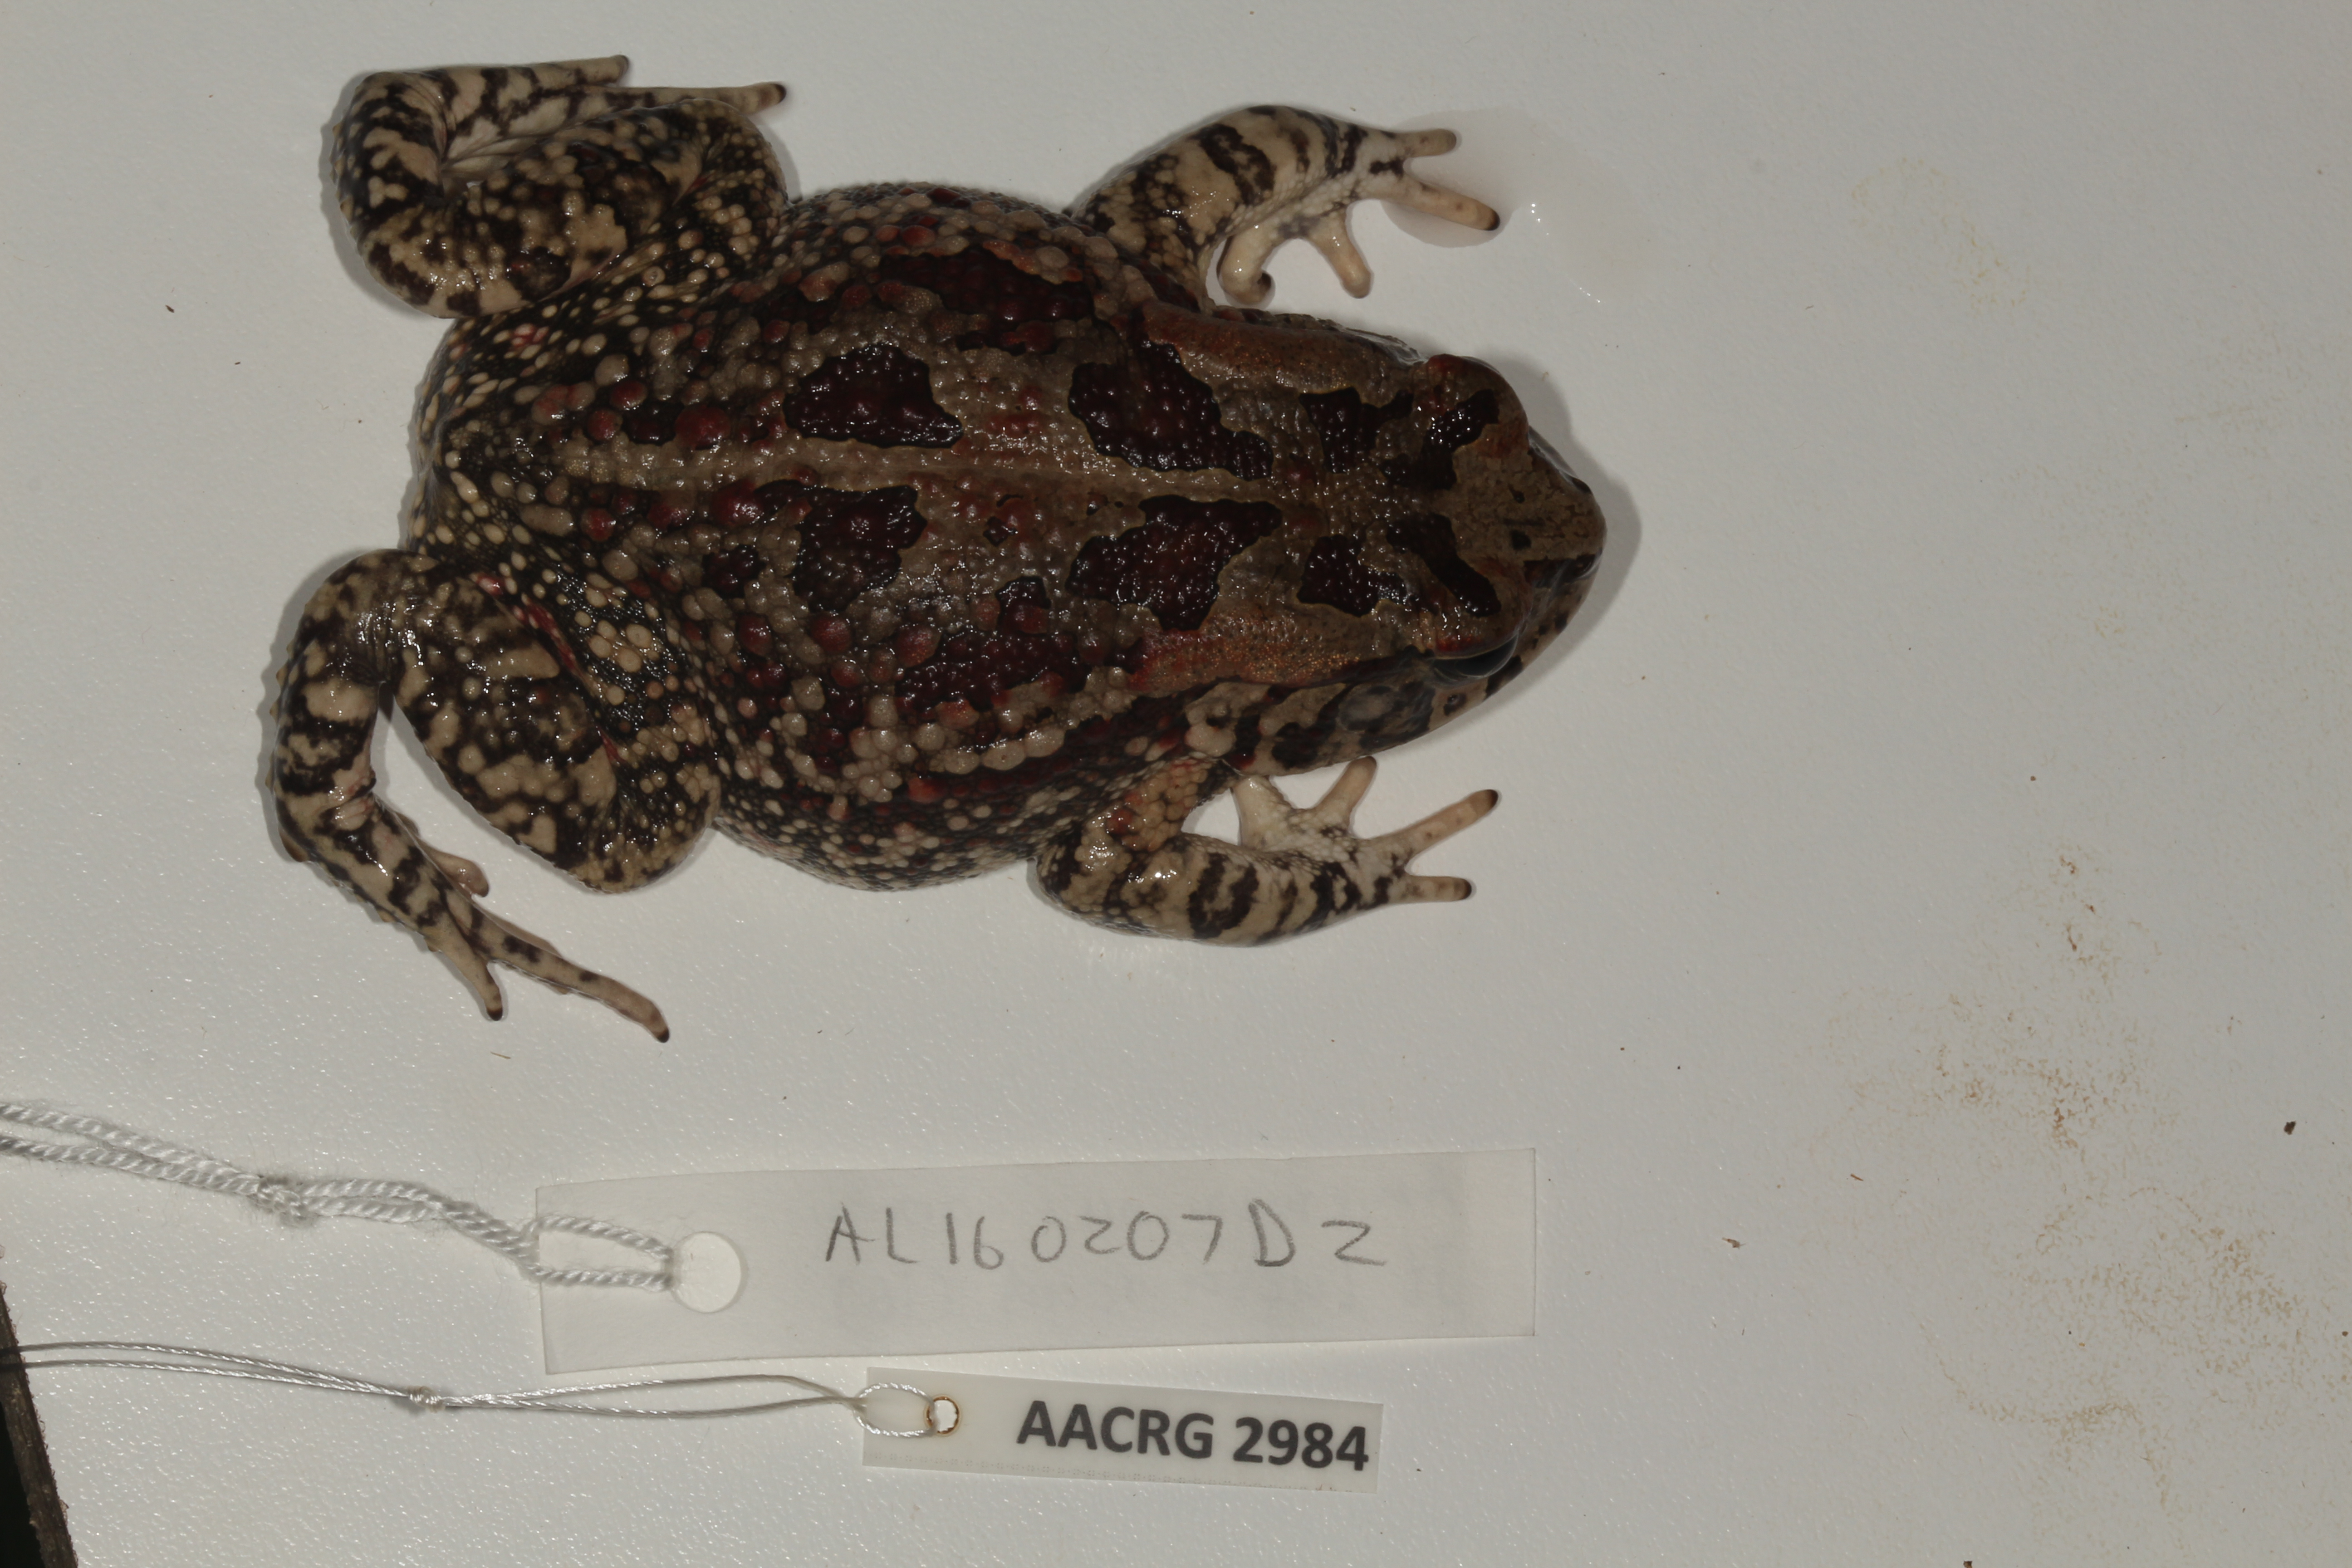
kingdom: Animalia
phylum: Chordata
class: Amphibia
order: Anura
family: Bufonidae
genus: Sclerophrys
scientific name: Sclerophrys garmani
